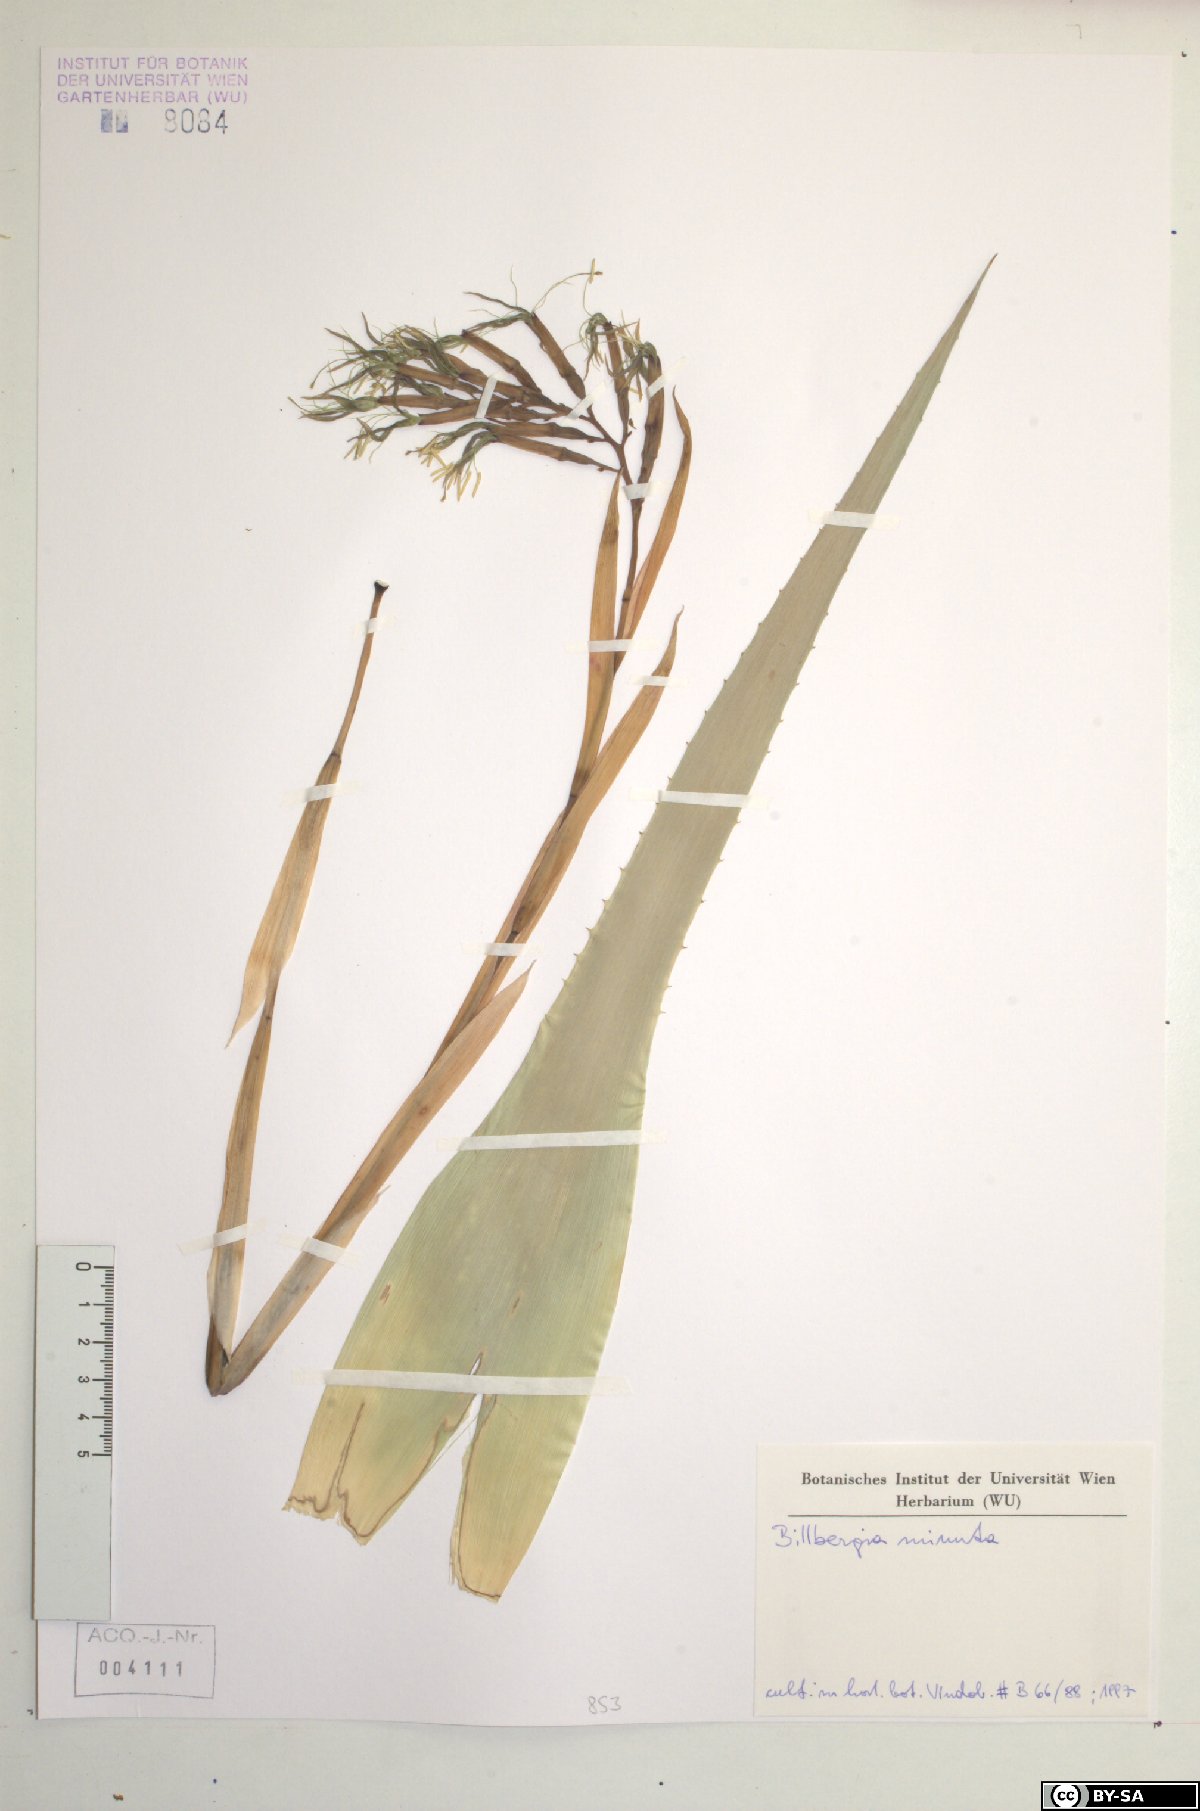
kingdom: Plantae
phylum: Tracheophyta
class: Liliopsida
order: Poales
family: Bromeliaceae
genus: Billbergia
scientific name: Billbergia nutans
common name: Friendship-plant
